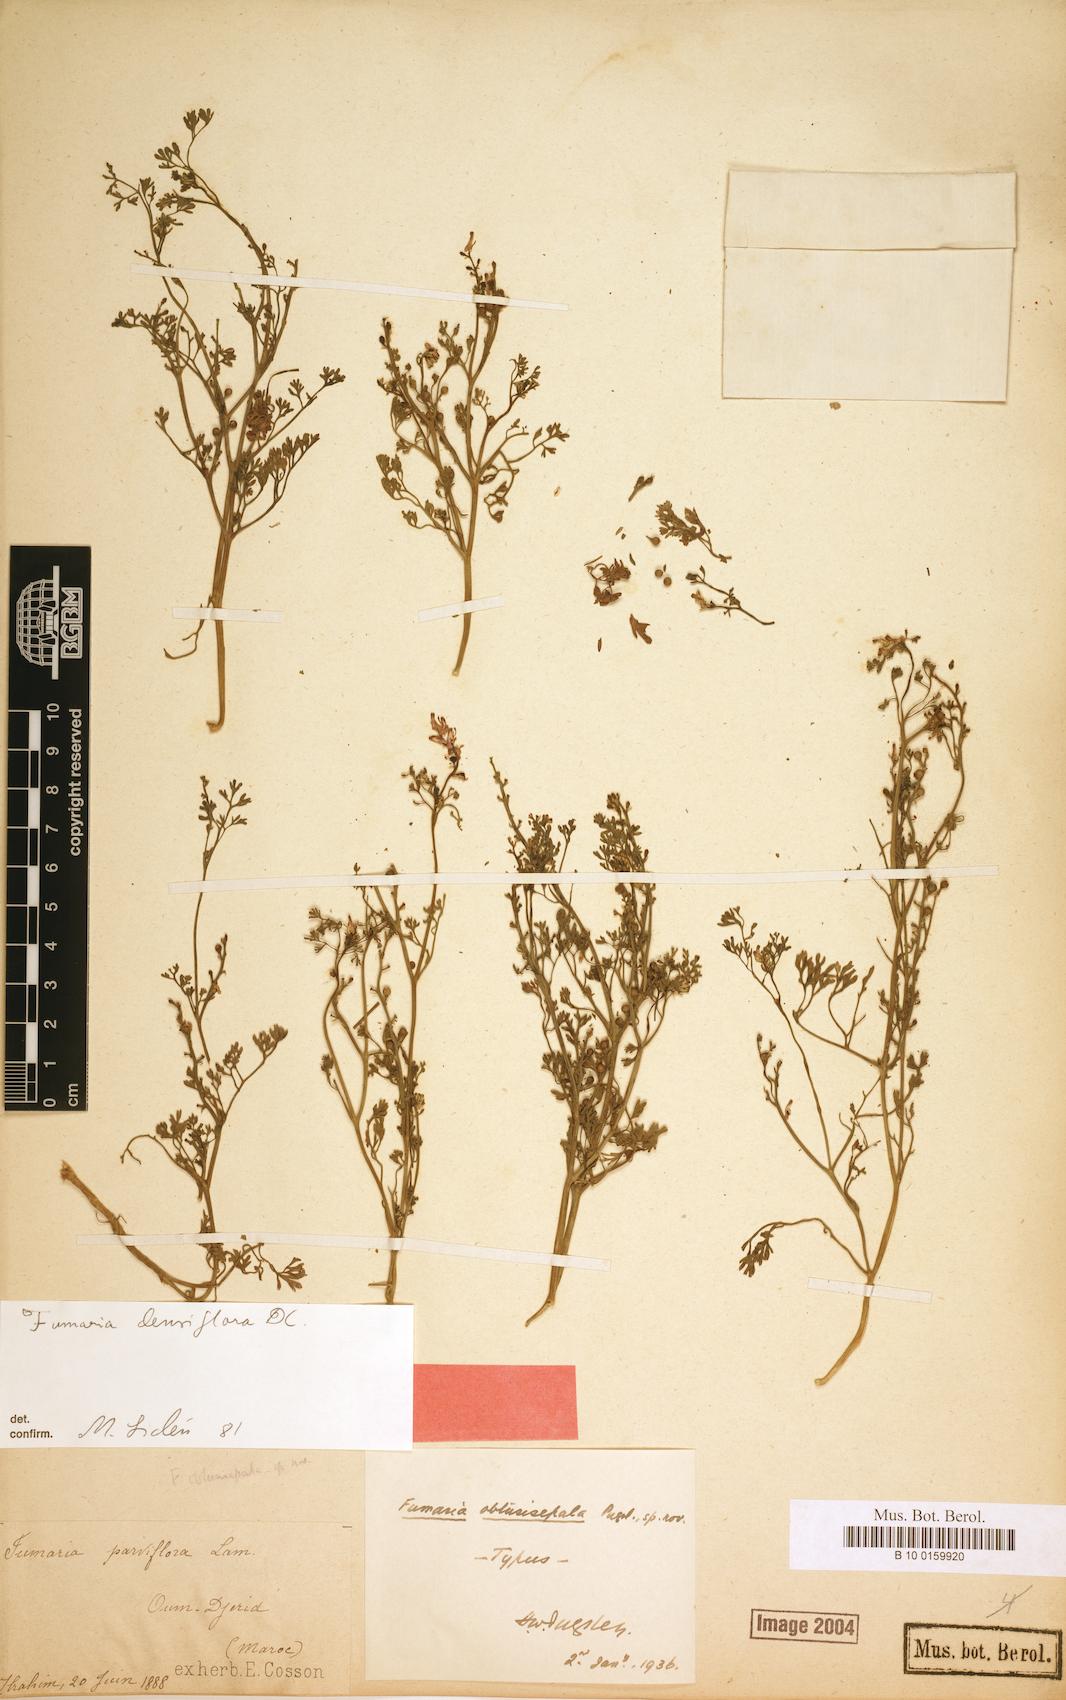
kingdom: Plantae
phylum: Tracheophyta
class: Magnoliopsida
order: Ranunculales
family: Papaveraceae
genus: Fumaria
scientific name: Fumaria densiflora
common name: Dense-flowered fumitory
